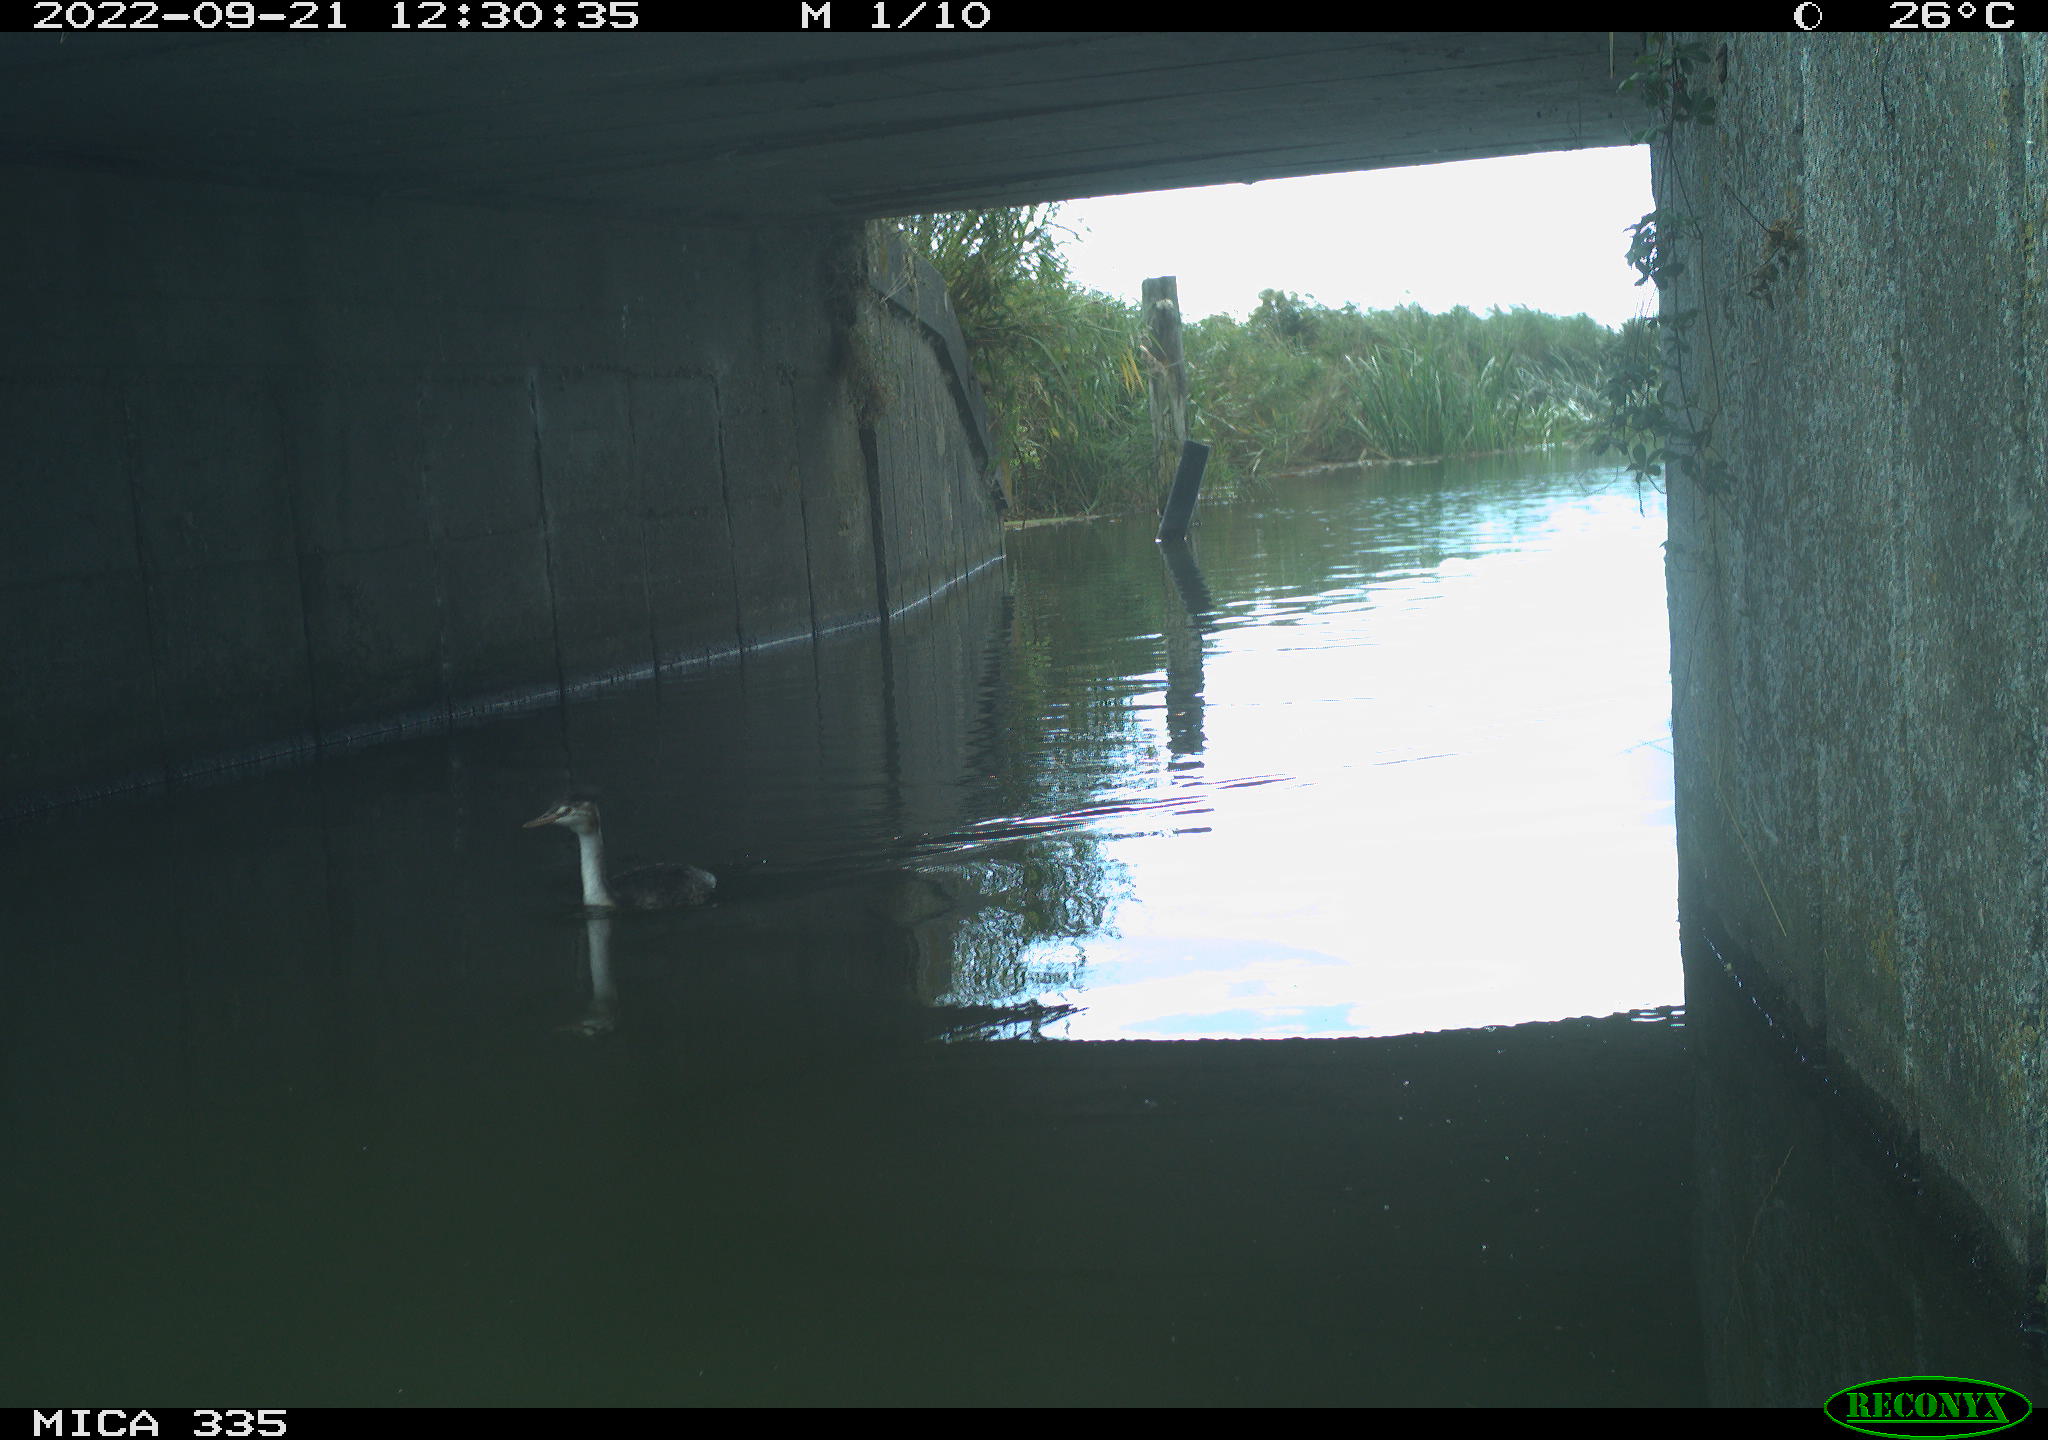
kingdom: Animalia
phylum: Chordata
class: Aves
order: Podicipediformes
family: Podicipedidae
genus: Podiceps
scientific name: Podiceps cristatus
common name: Great crested grebe
